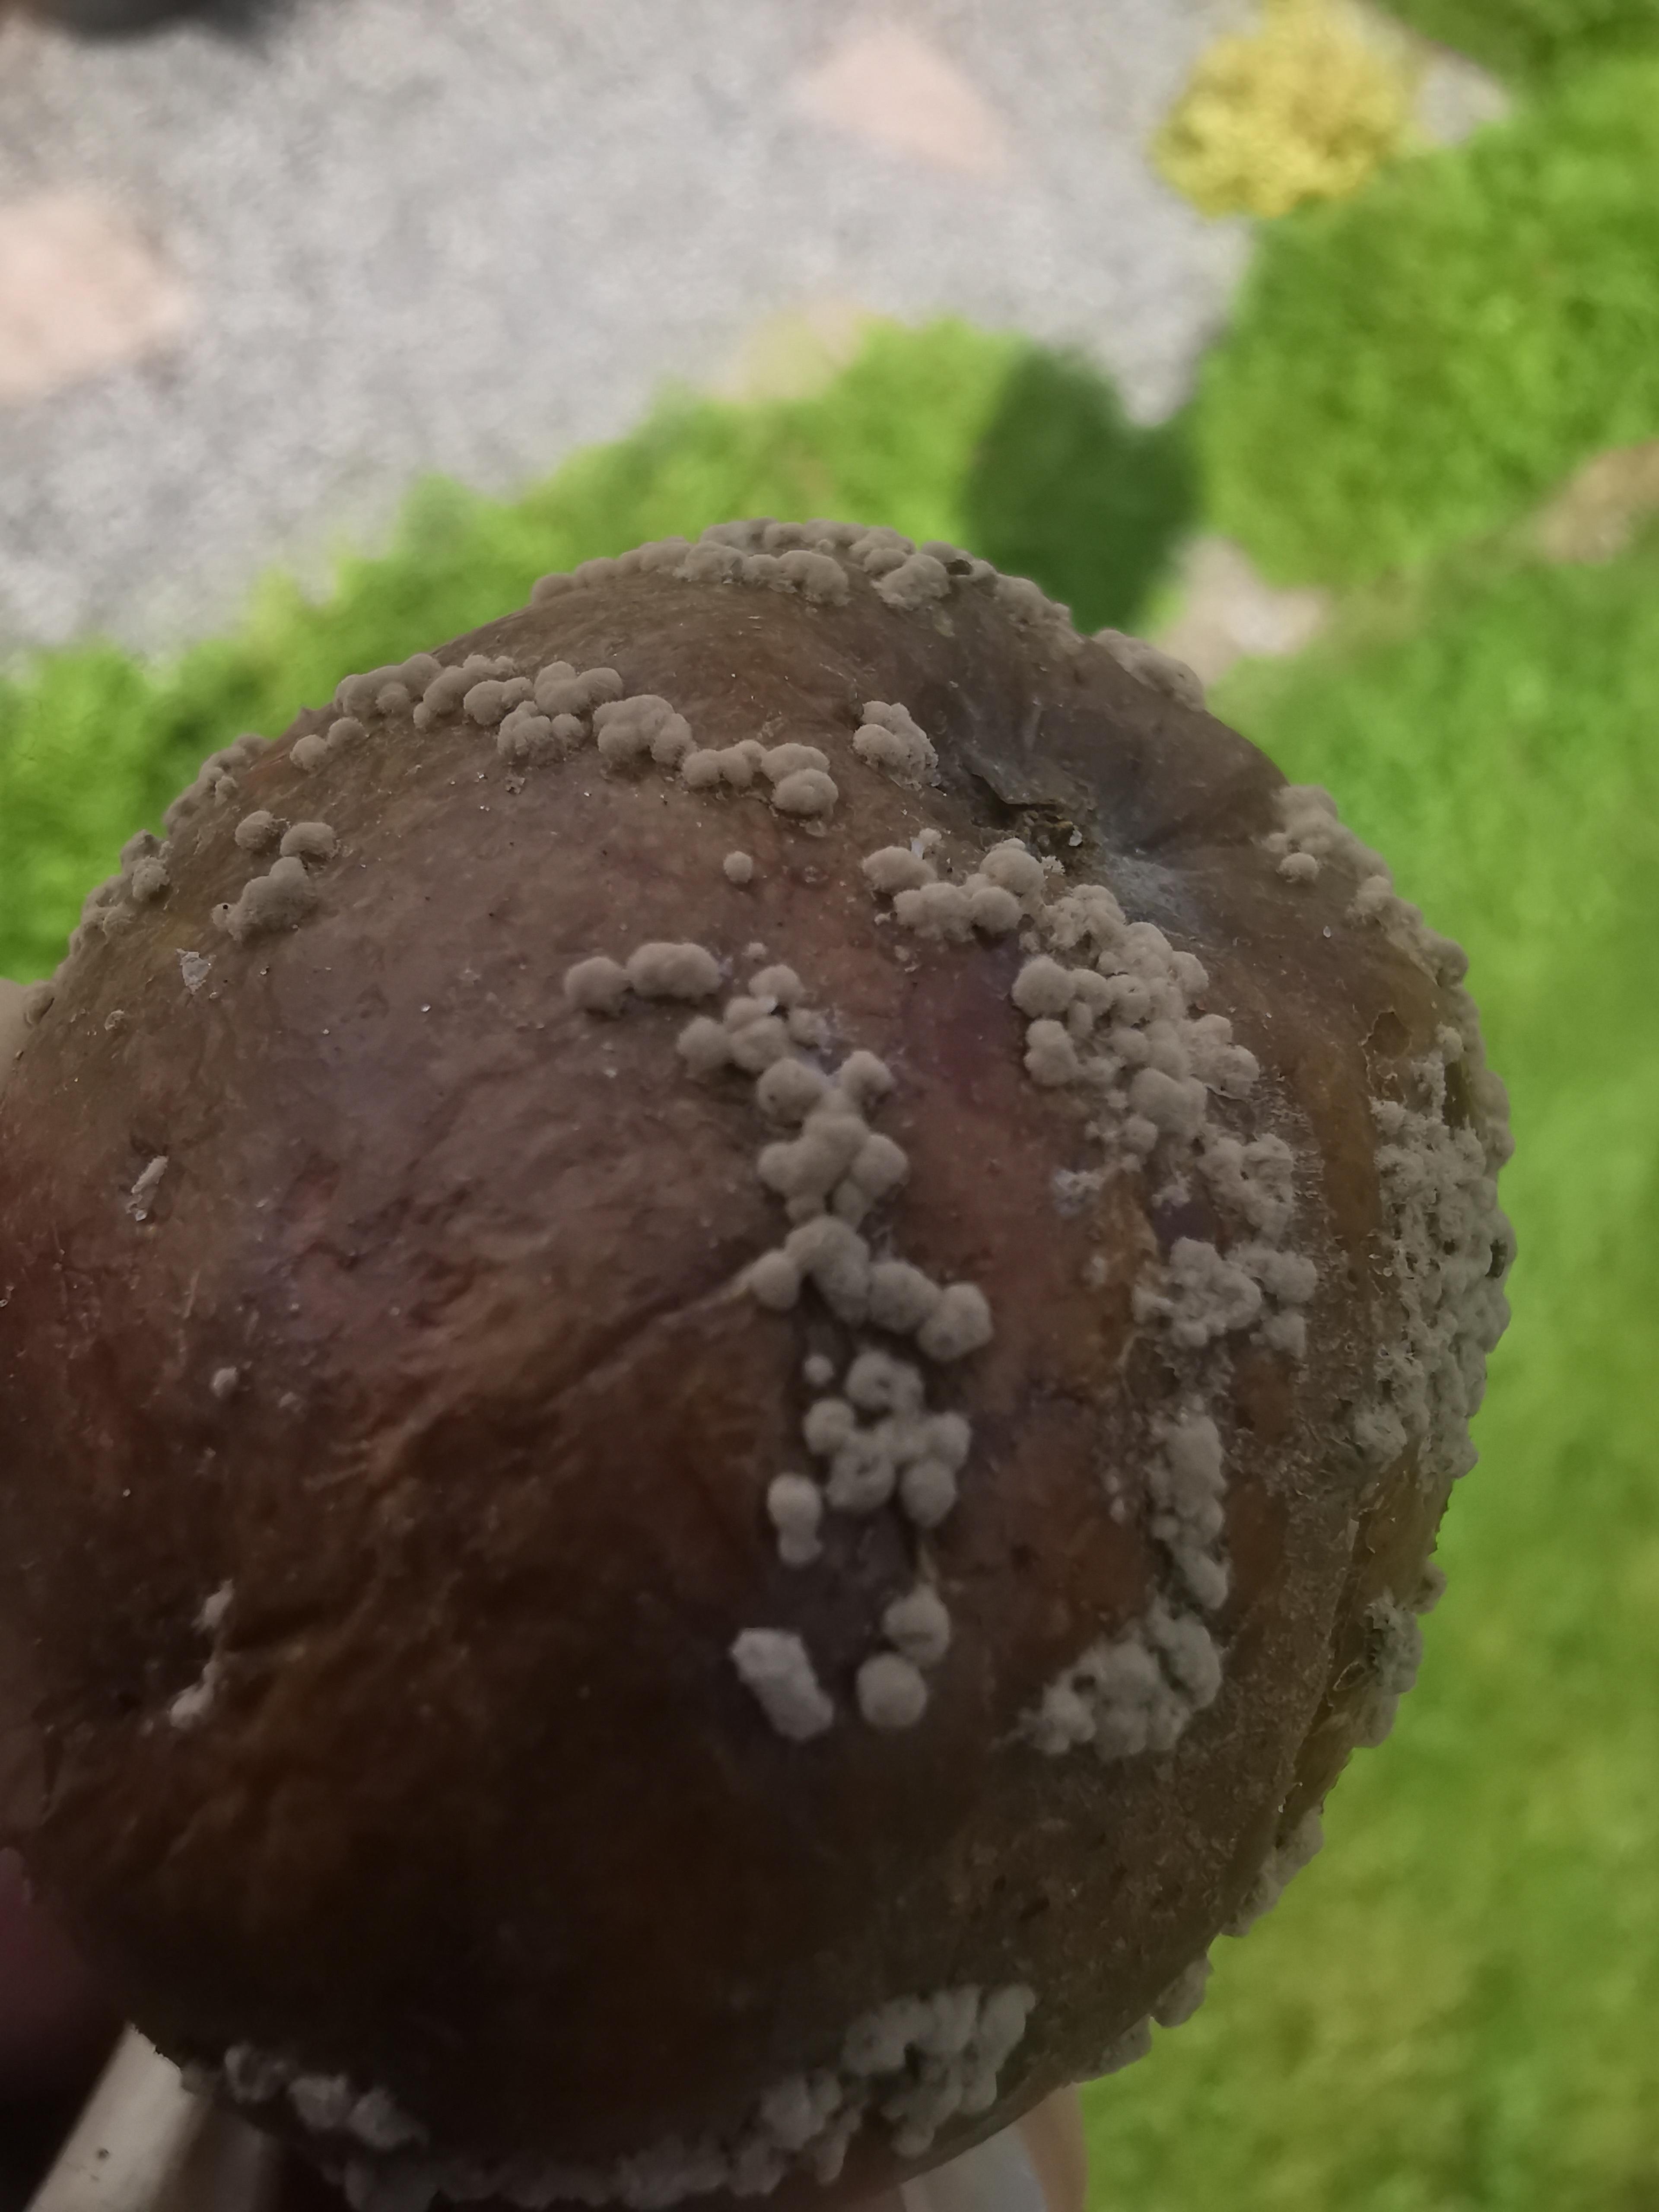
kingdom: Fungi
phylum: Ascomycota
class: Leotiomycetes
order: Helotiales
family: Sclerotiniaceae
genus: Monilinia
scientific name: Monilinia fructigena
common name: æble-knoldskive
